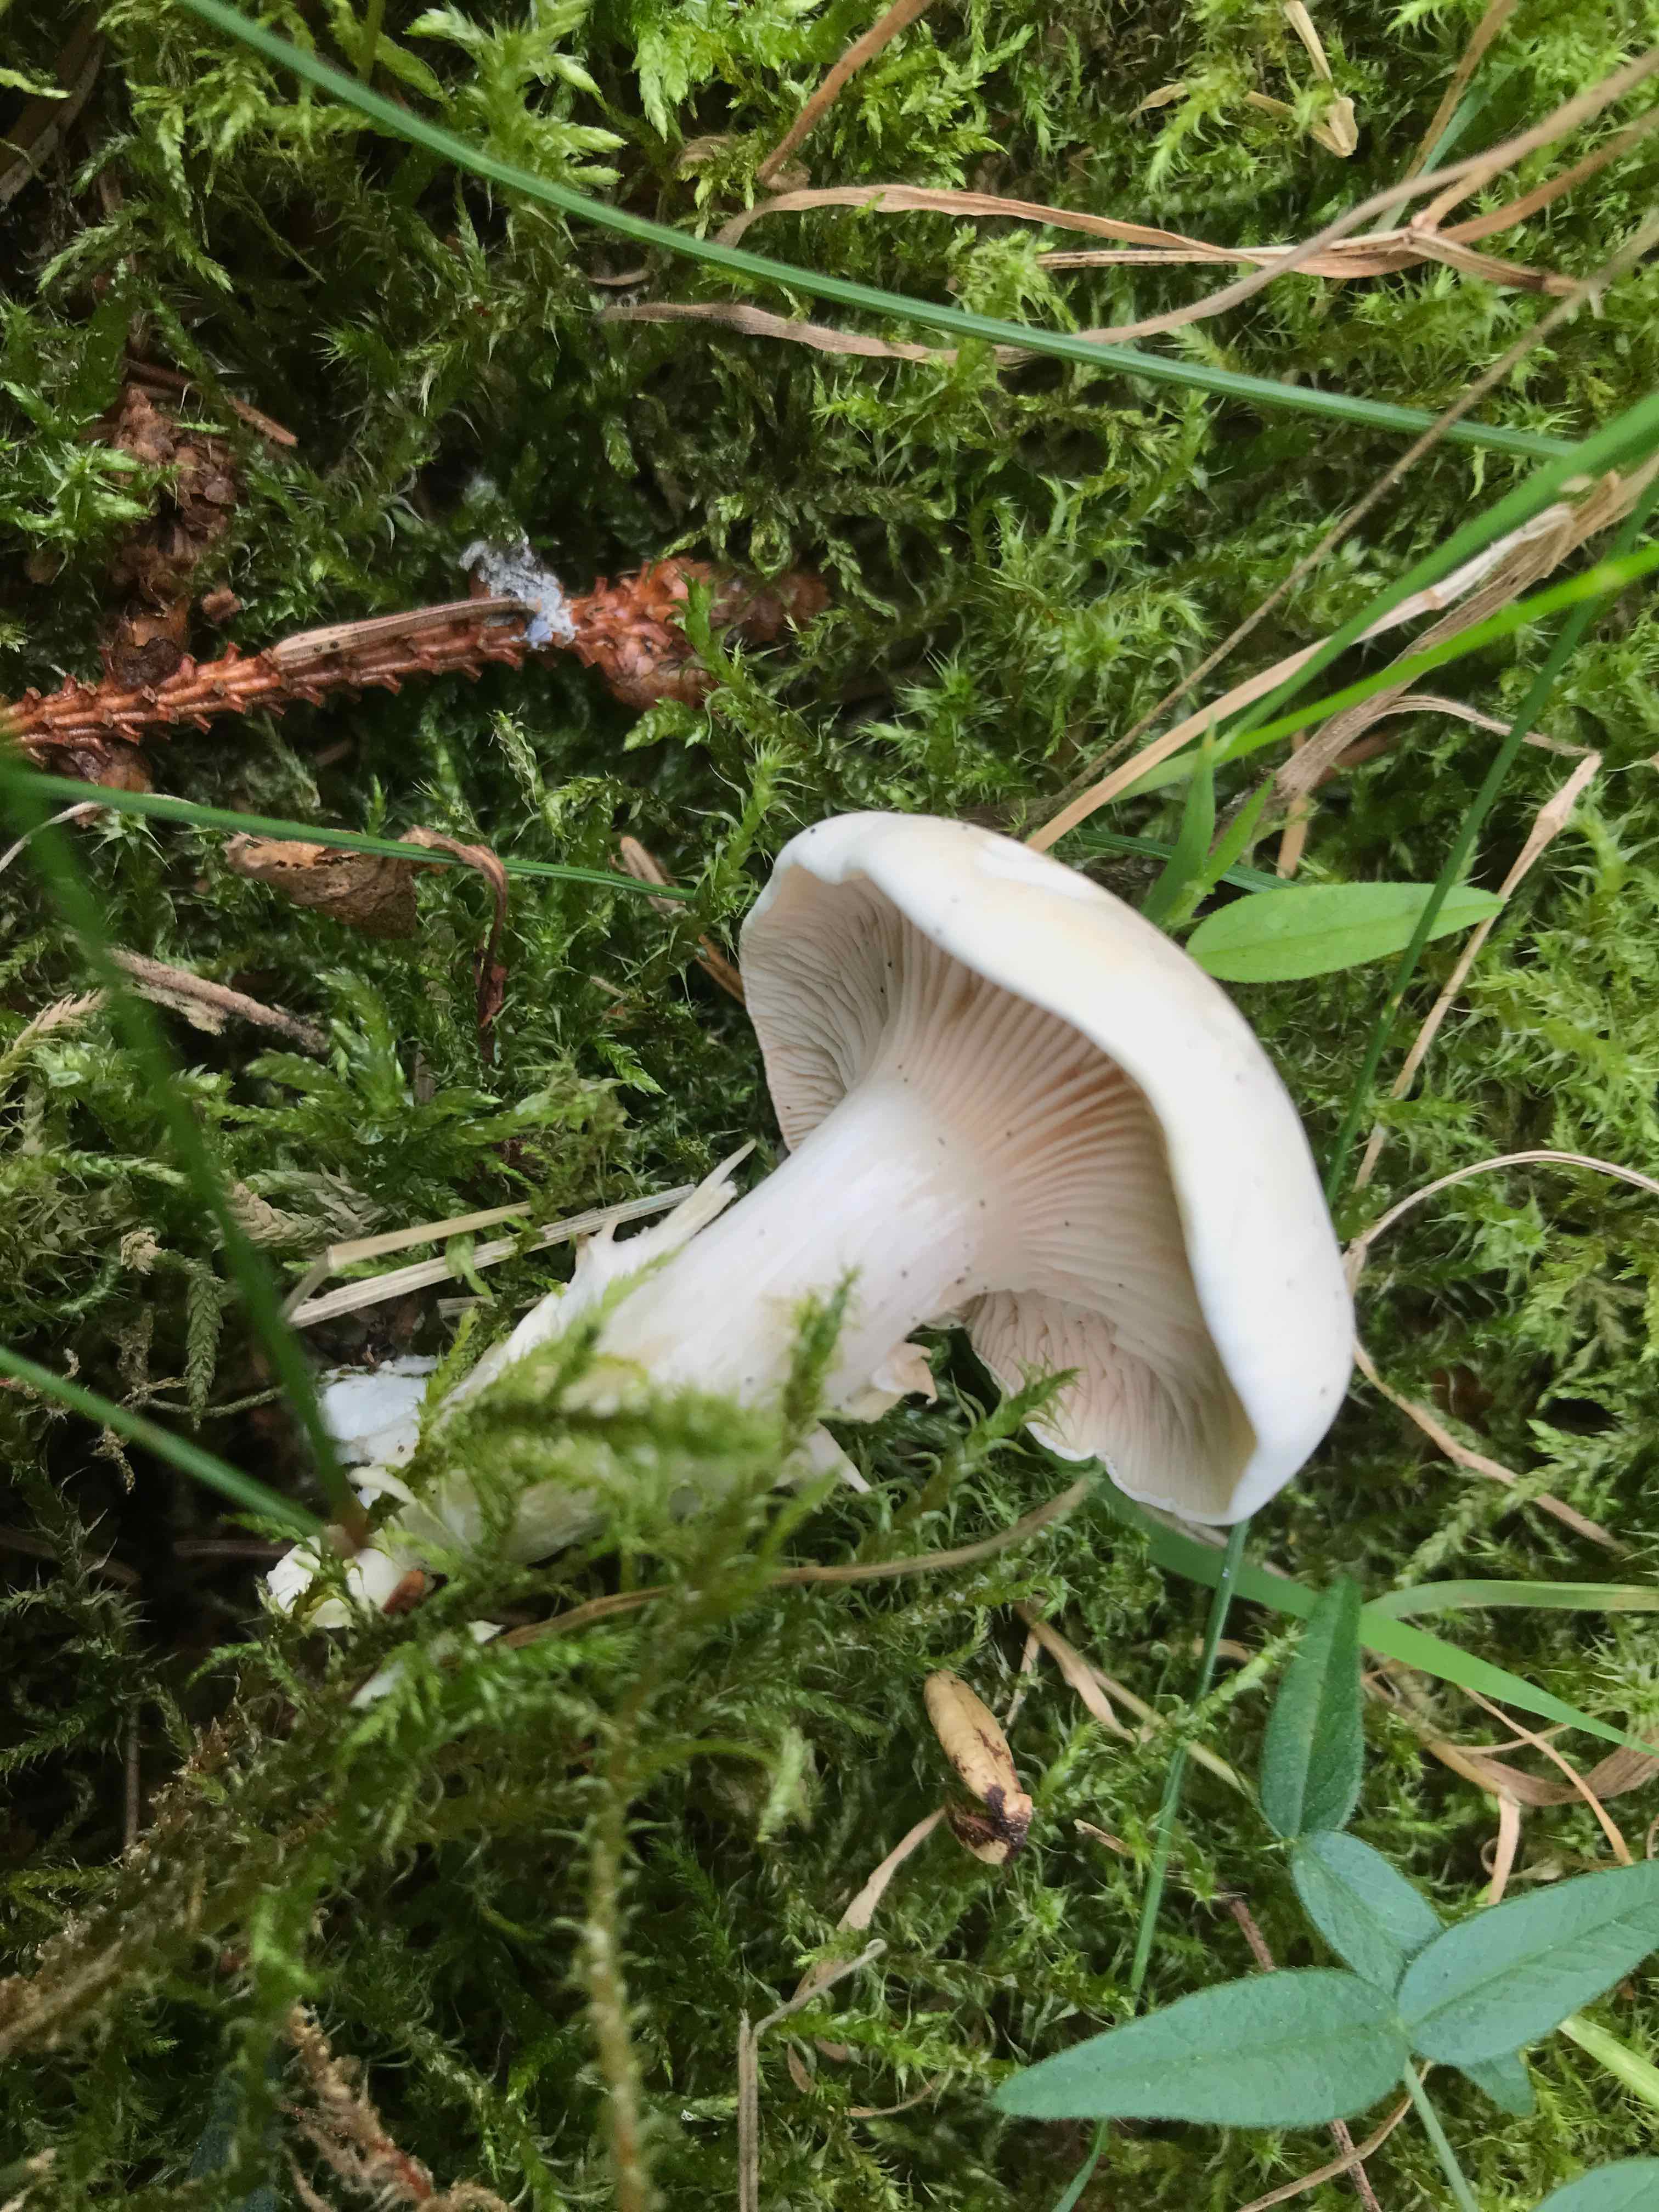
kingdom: Fungi
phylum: Basidiomycota
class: Agaricomycetes
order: Agaricales
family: Entolomataceae
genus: Clitopilus
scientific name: Clitopilus prunulus
